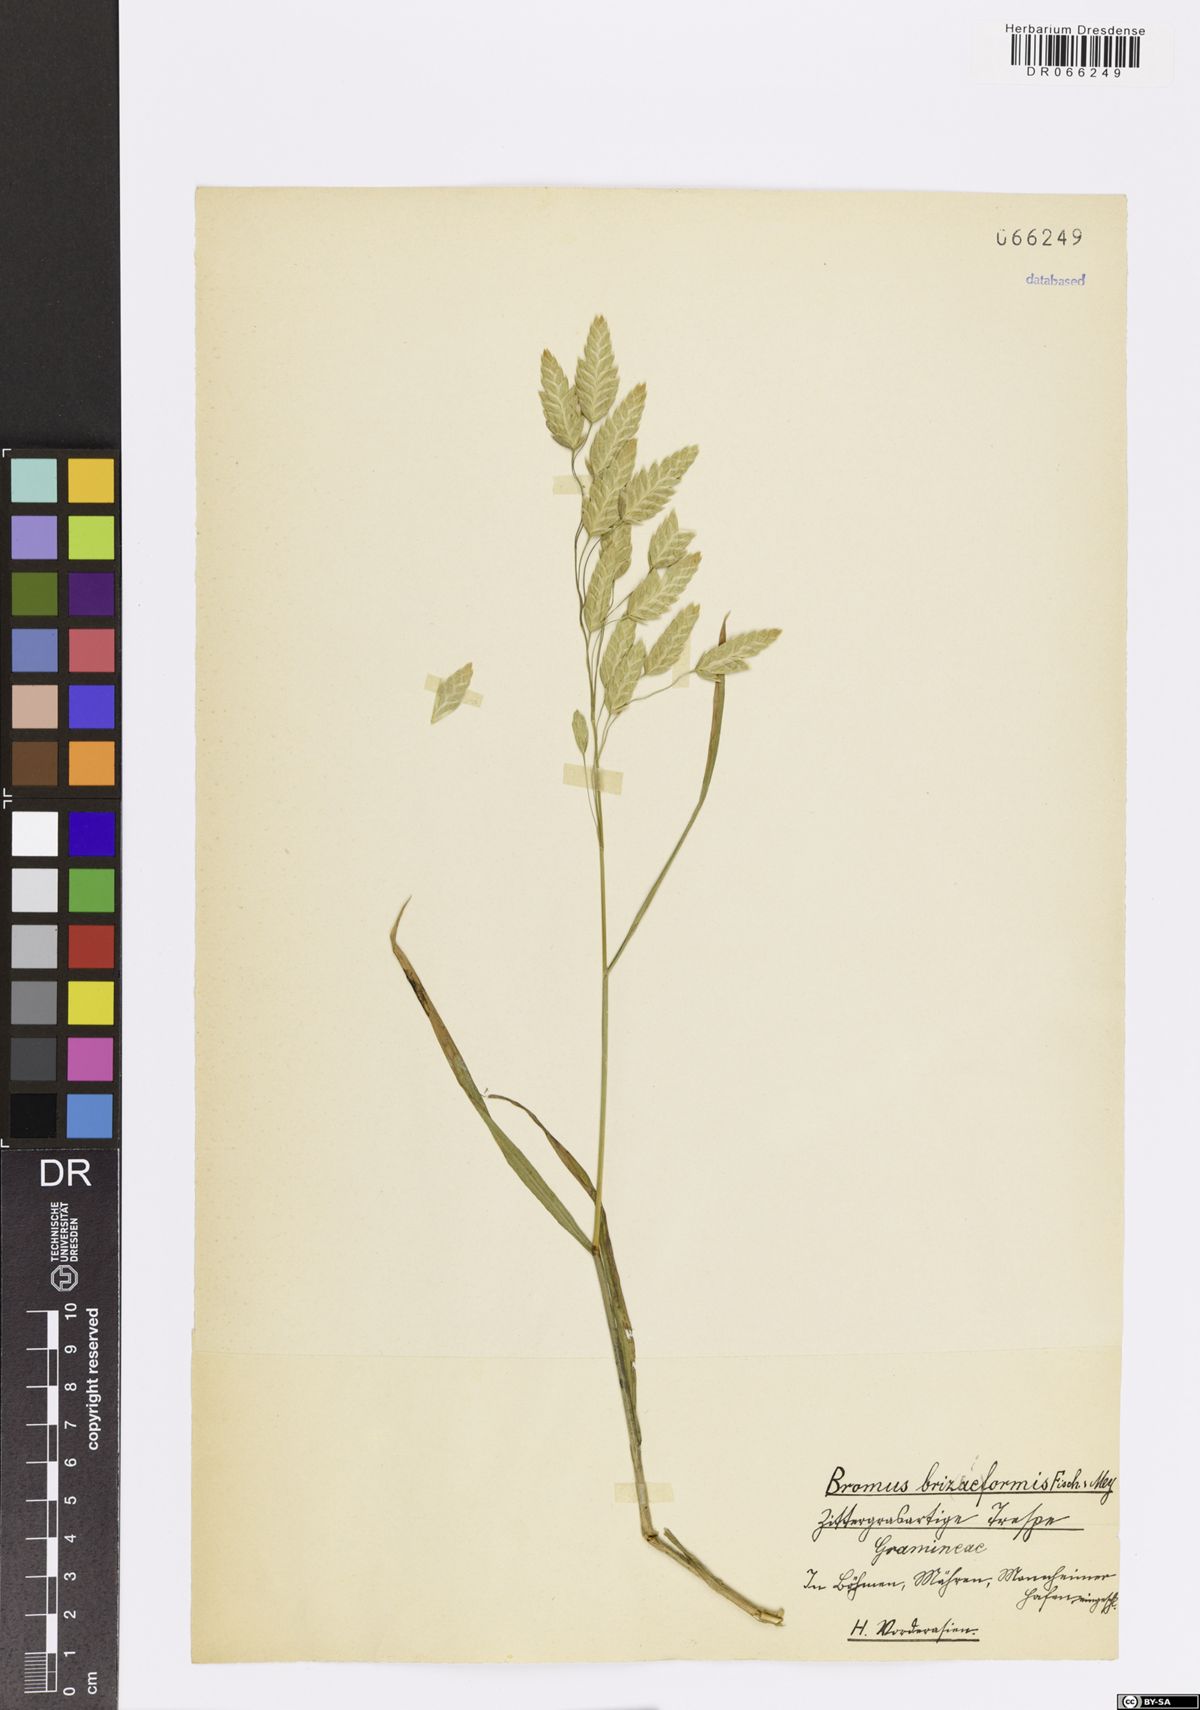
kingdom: Plantae
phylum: Tracheophyta
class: Liliopsida
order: Poales
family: Poaceae
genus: Bromus
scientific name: Bromus briziformis
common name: Rattlesnake brome
